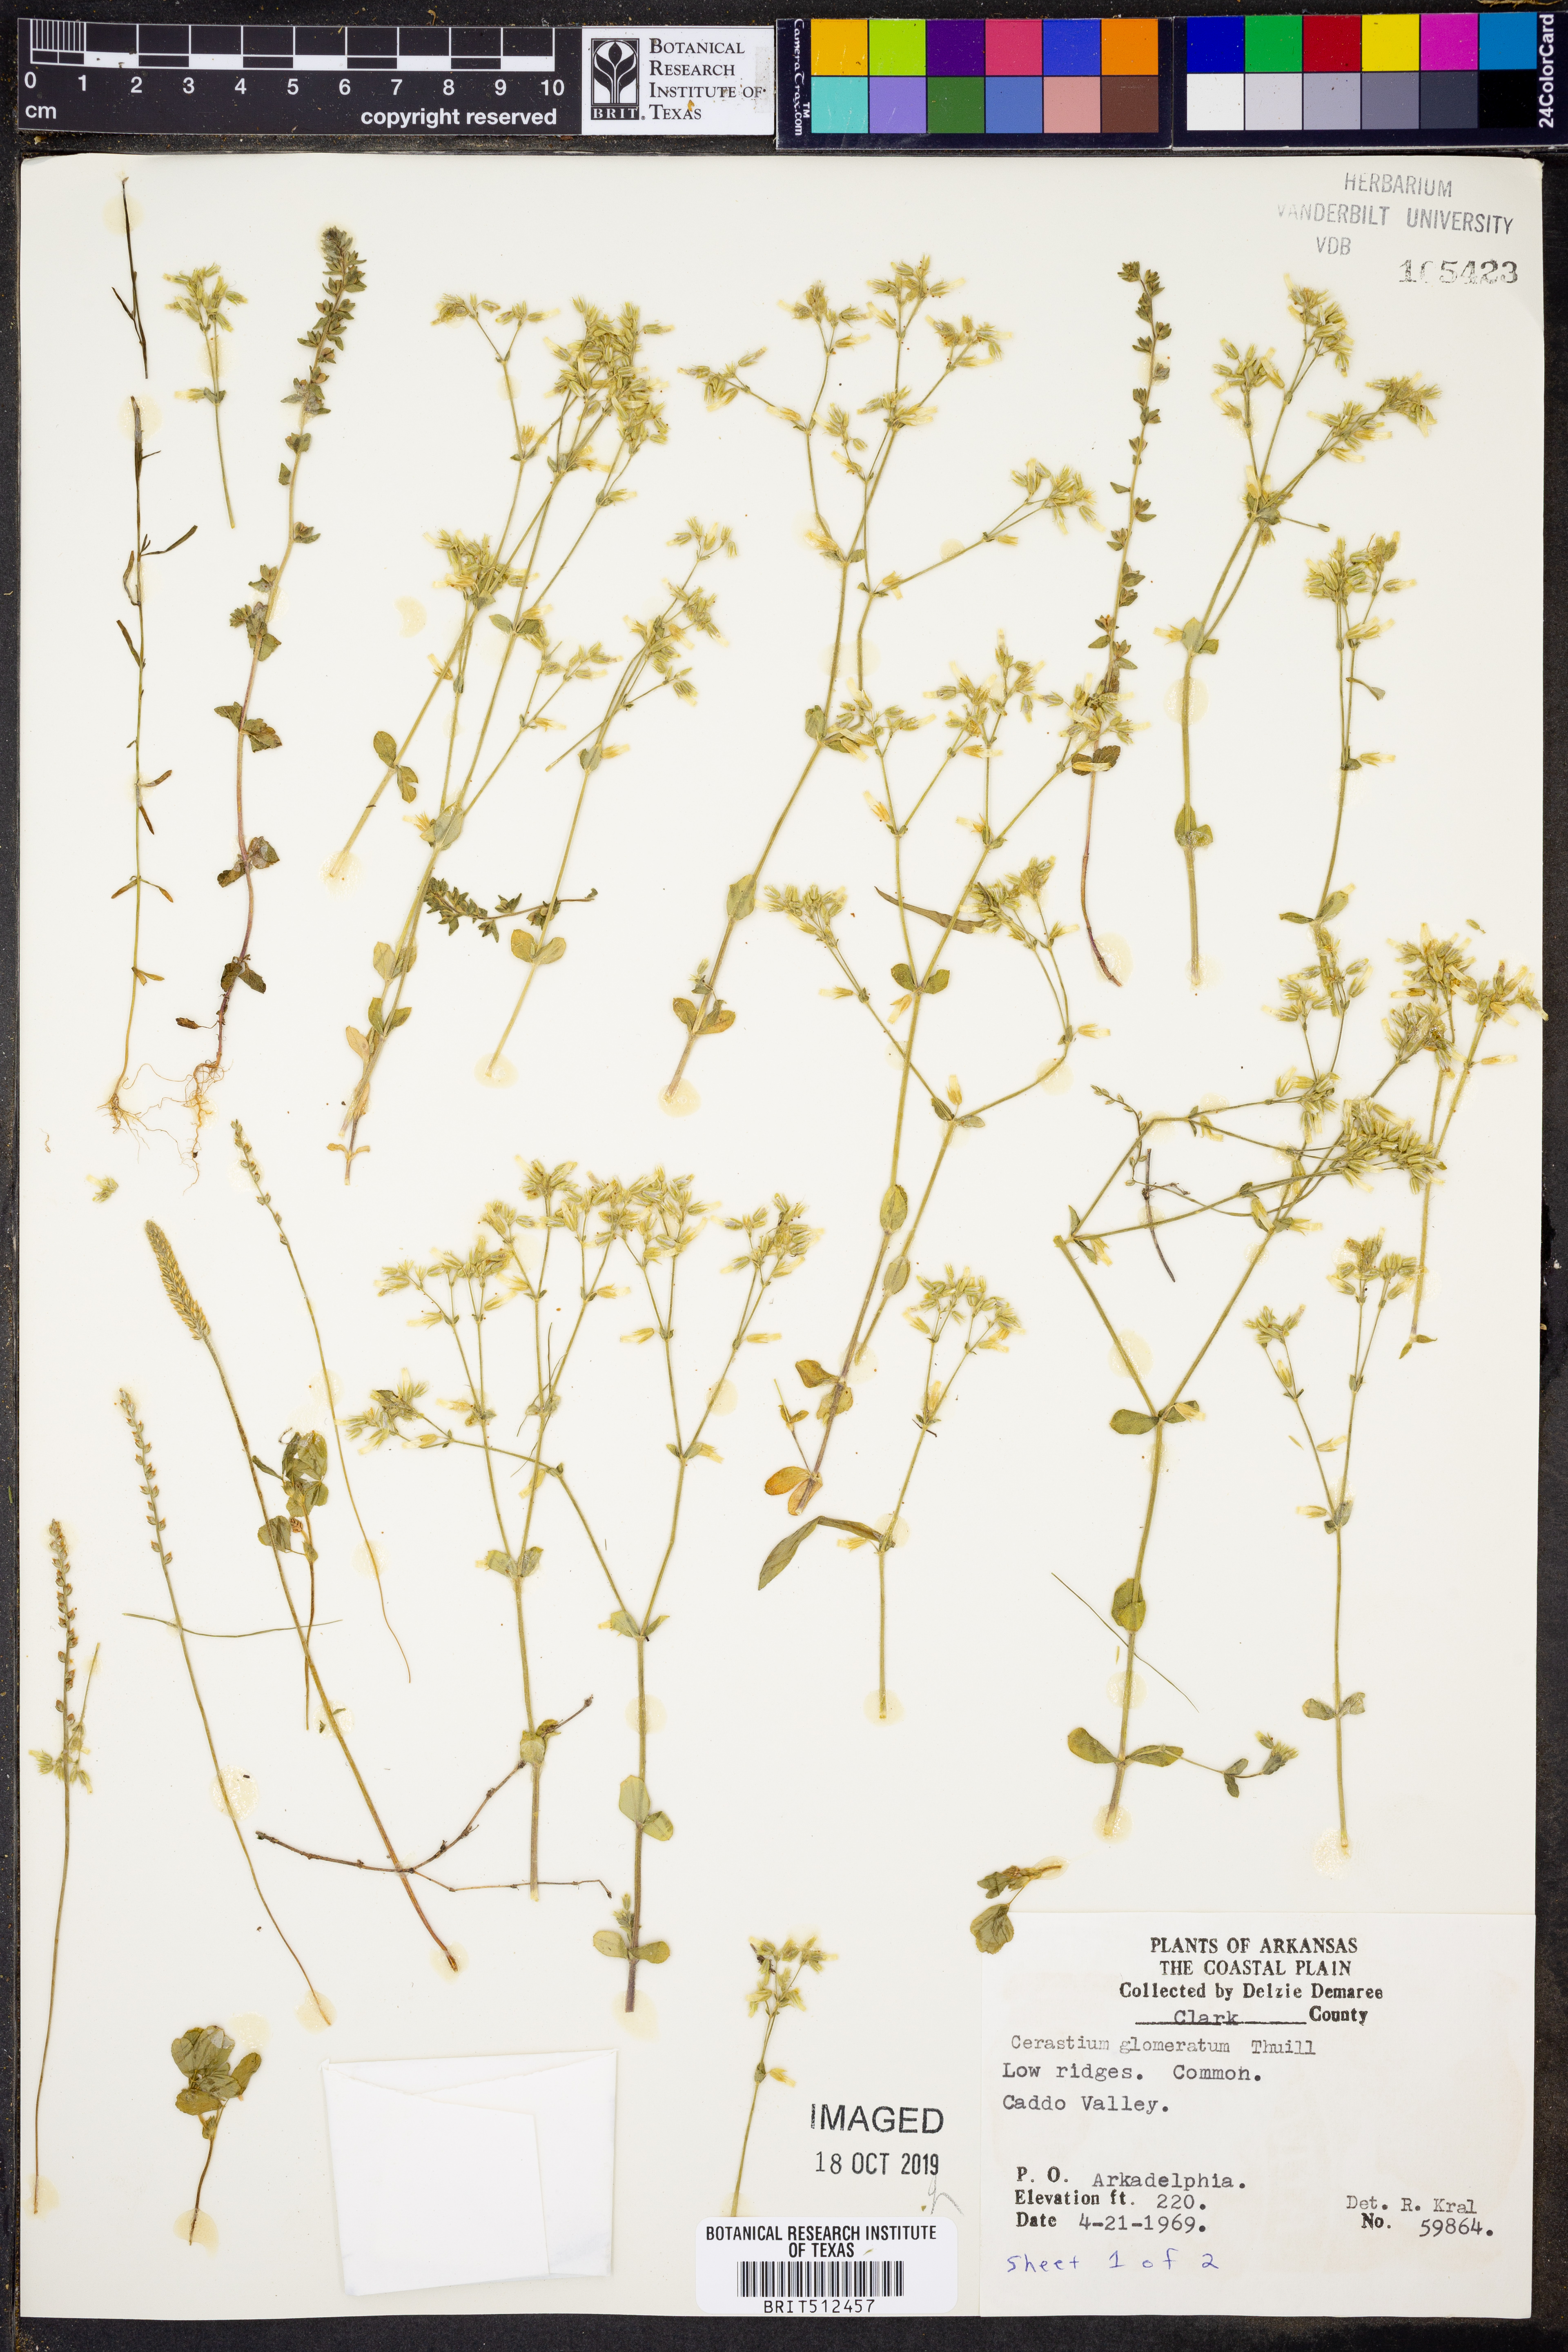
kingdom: Plantae
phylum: Tracheophyta
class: Magnoliopsida
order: Caryophyllales
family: Caryophyllaceae
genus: Cerastium
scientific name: Cerastium glomeratum
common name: Sticky chickweed
